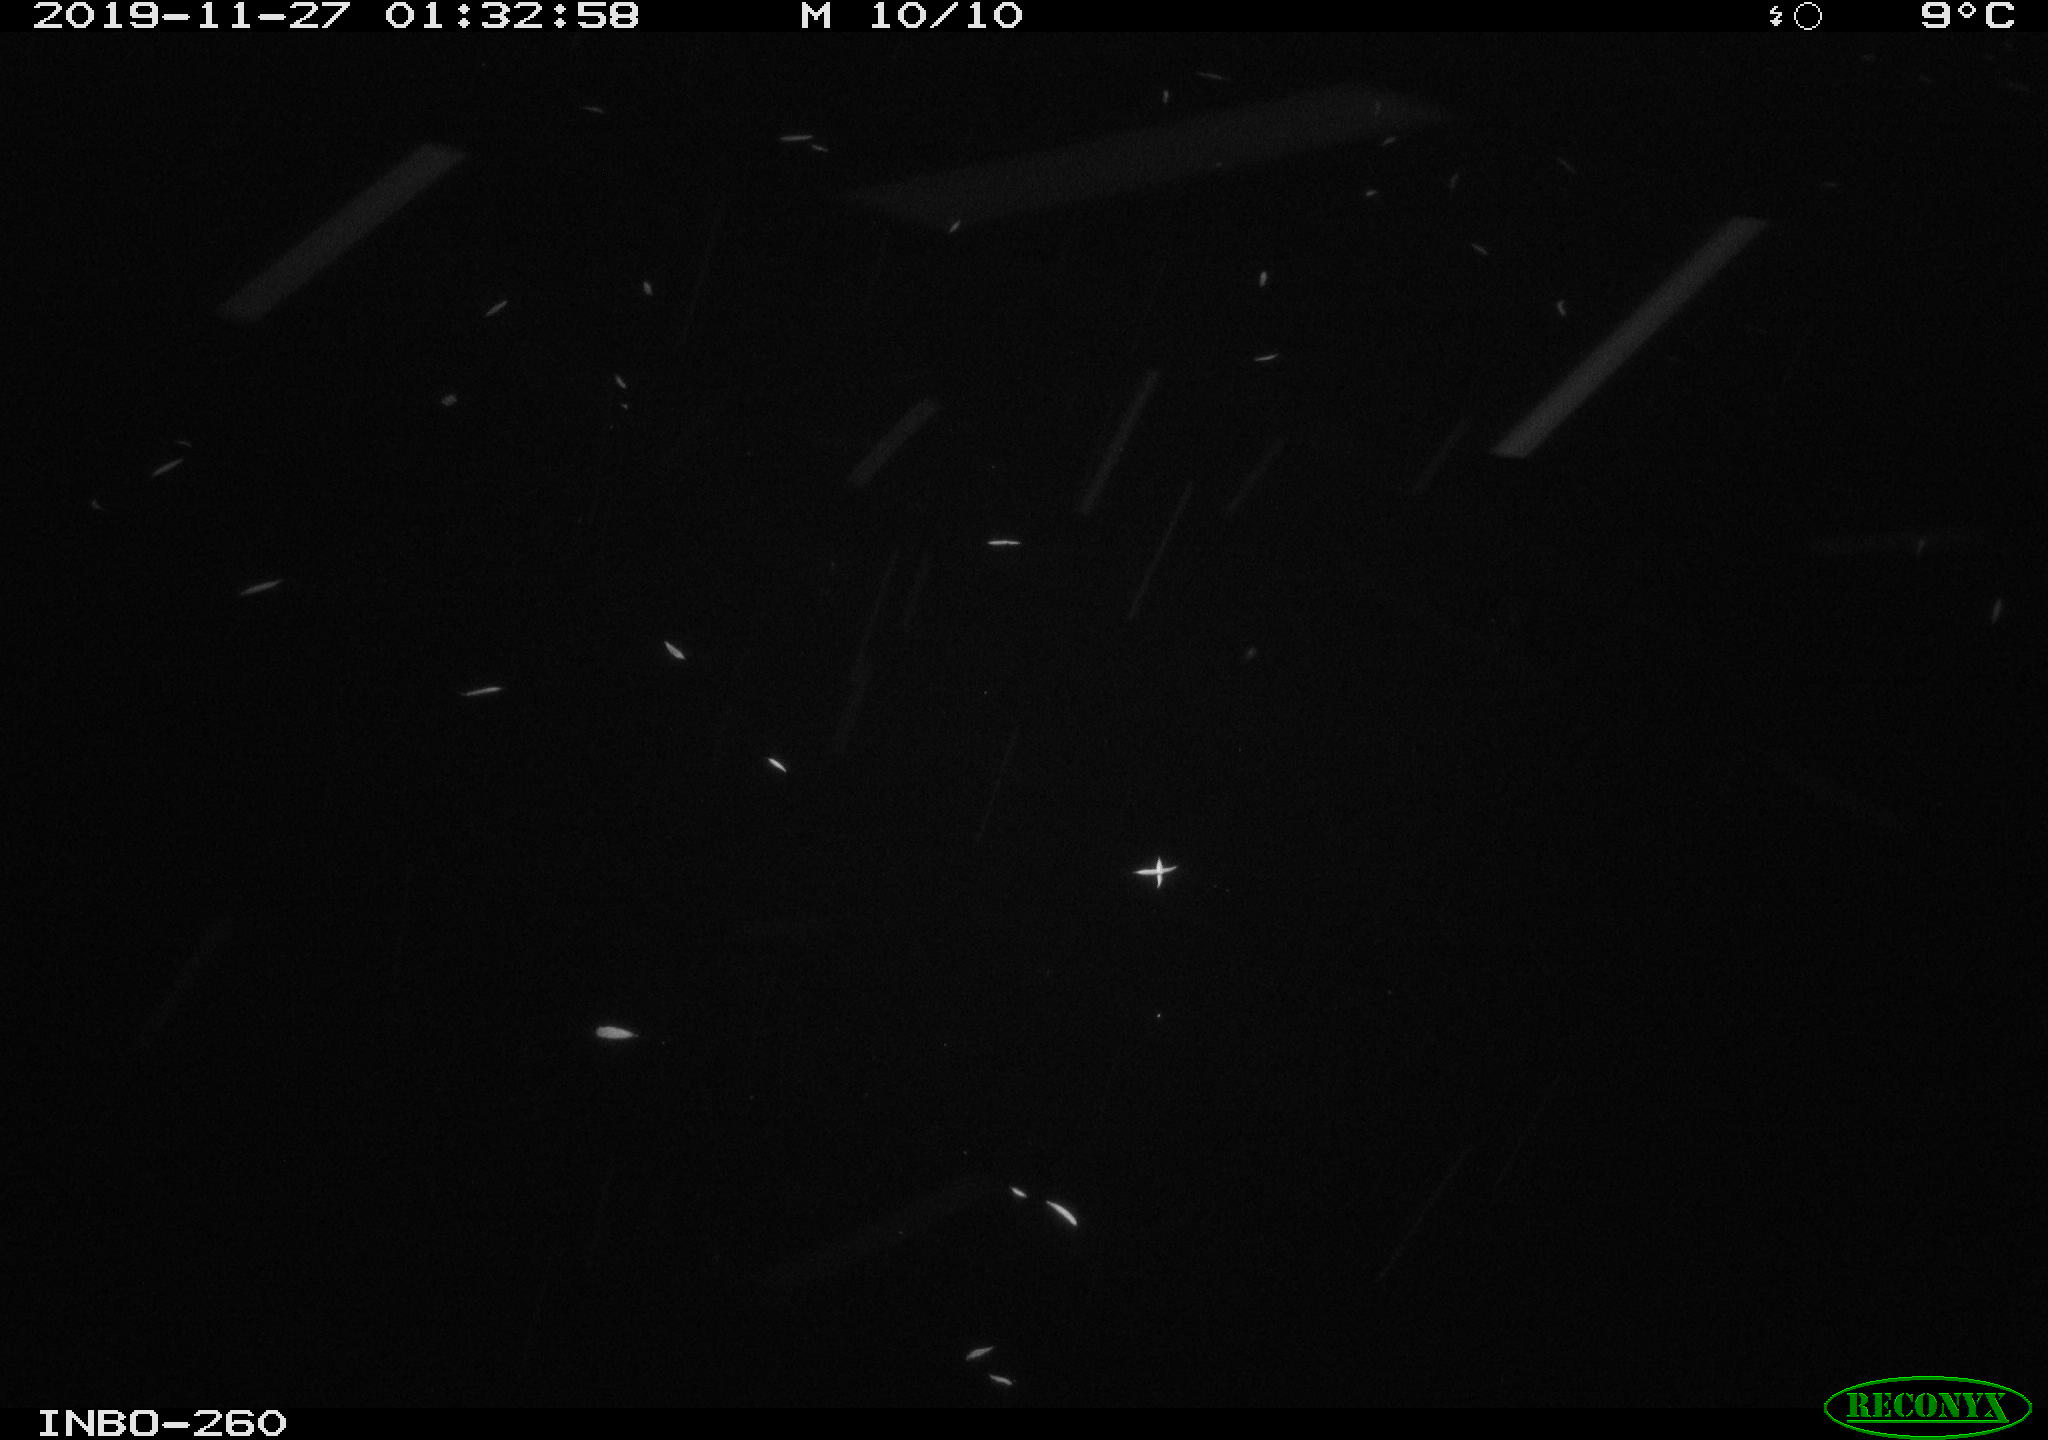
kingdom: Animalia
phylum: Chordata
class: Aves
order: Anseriformes
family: Anatidae
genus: Anas
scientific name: Anas platyrhynchos
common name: Mallard
